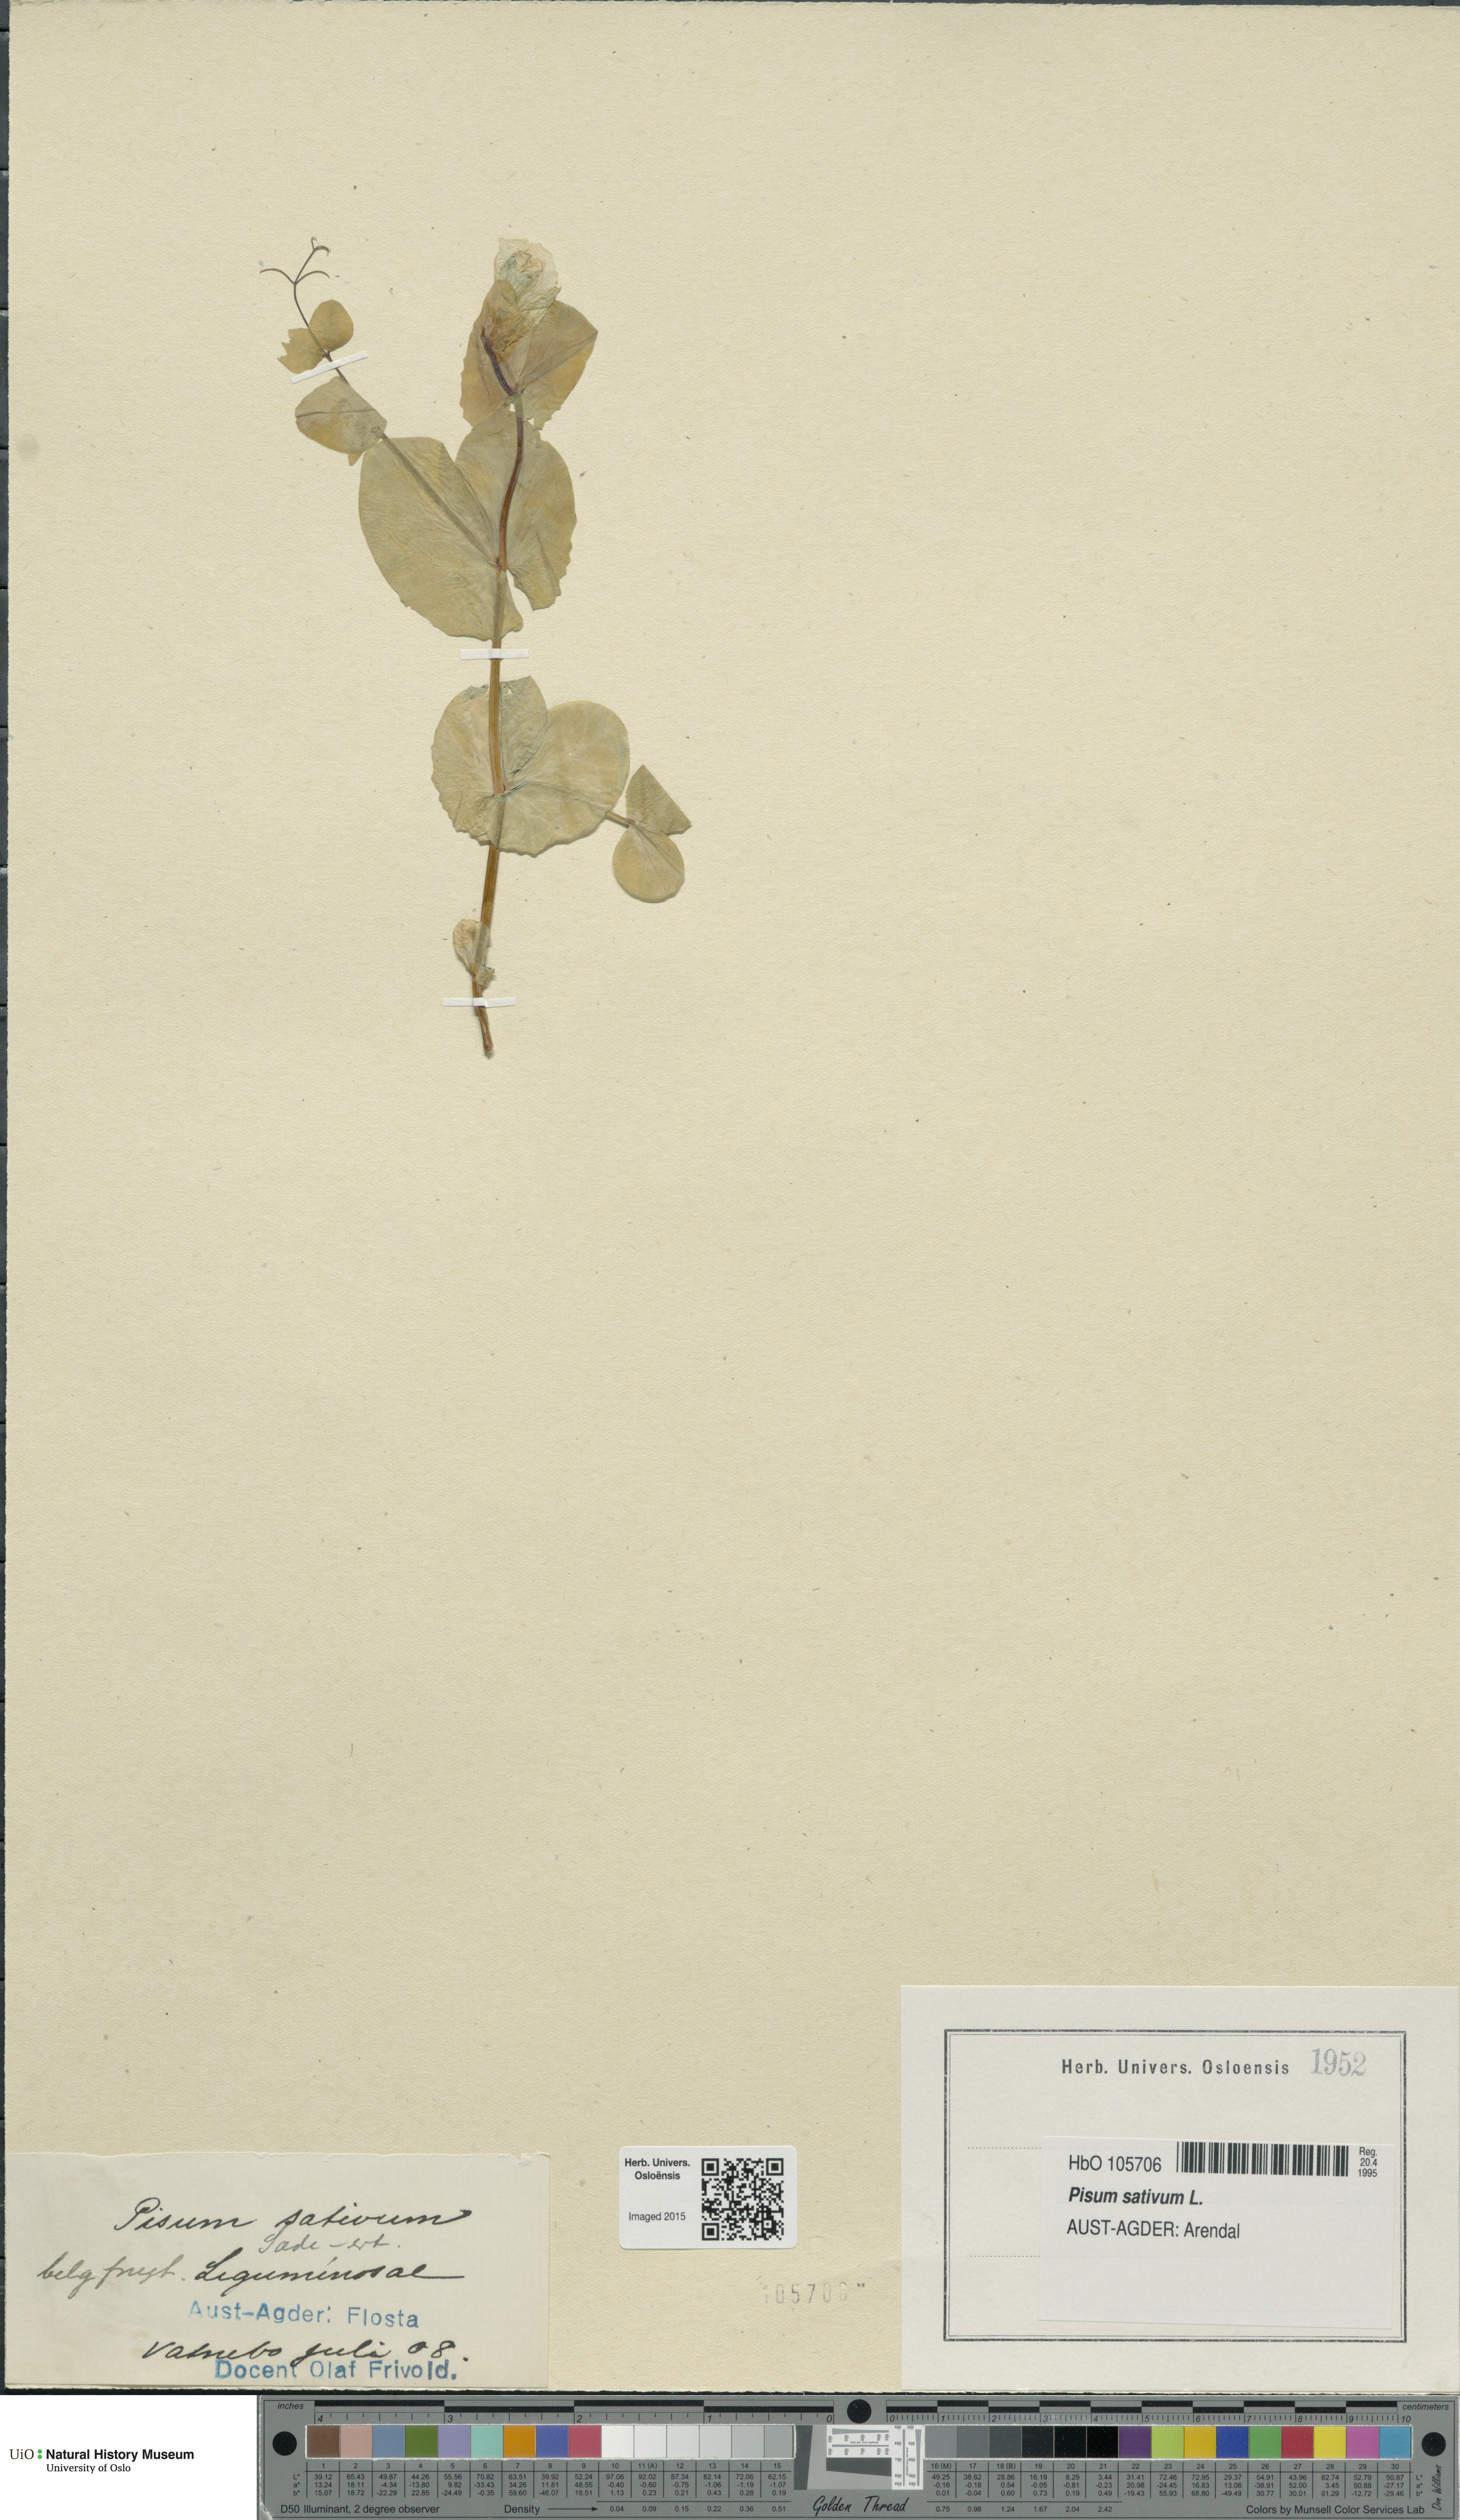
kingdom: Plantae
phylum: Tracheophyta
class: Magnoliopsida
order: Fabales
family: Fabaceae
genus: Lathyrus
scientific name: Lathyrus oleraceus
